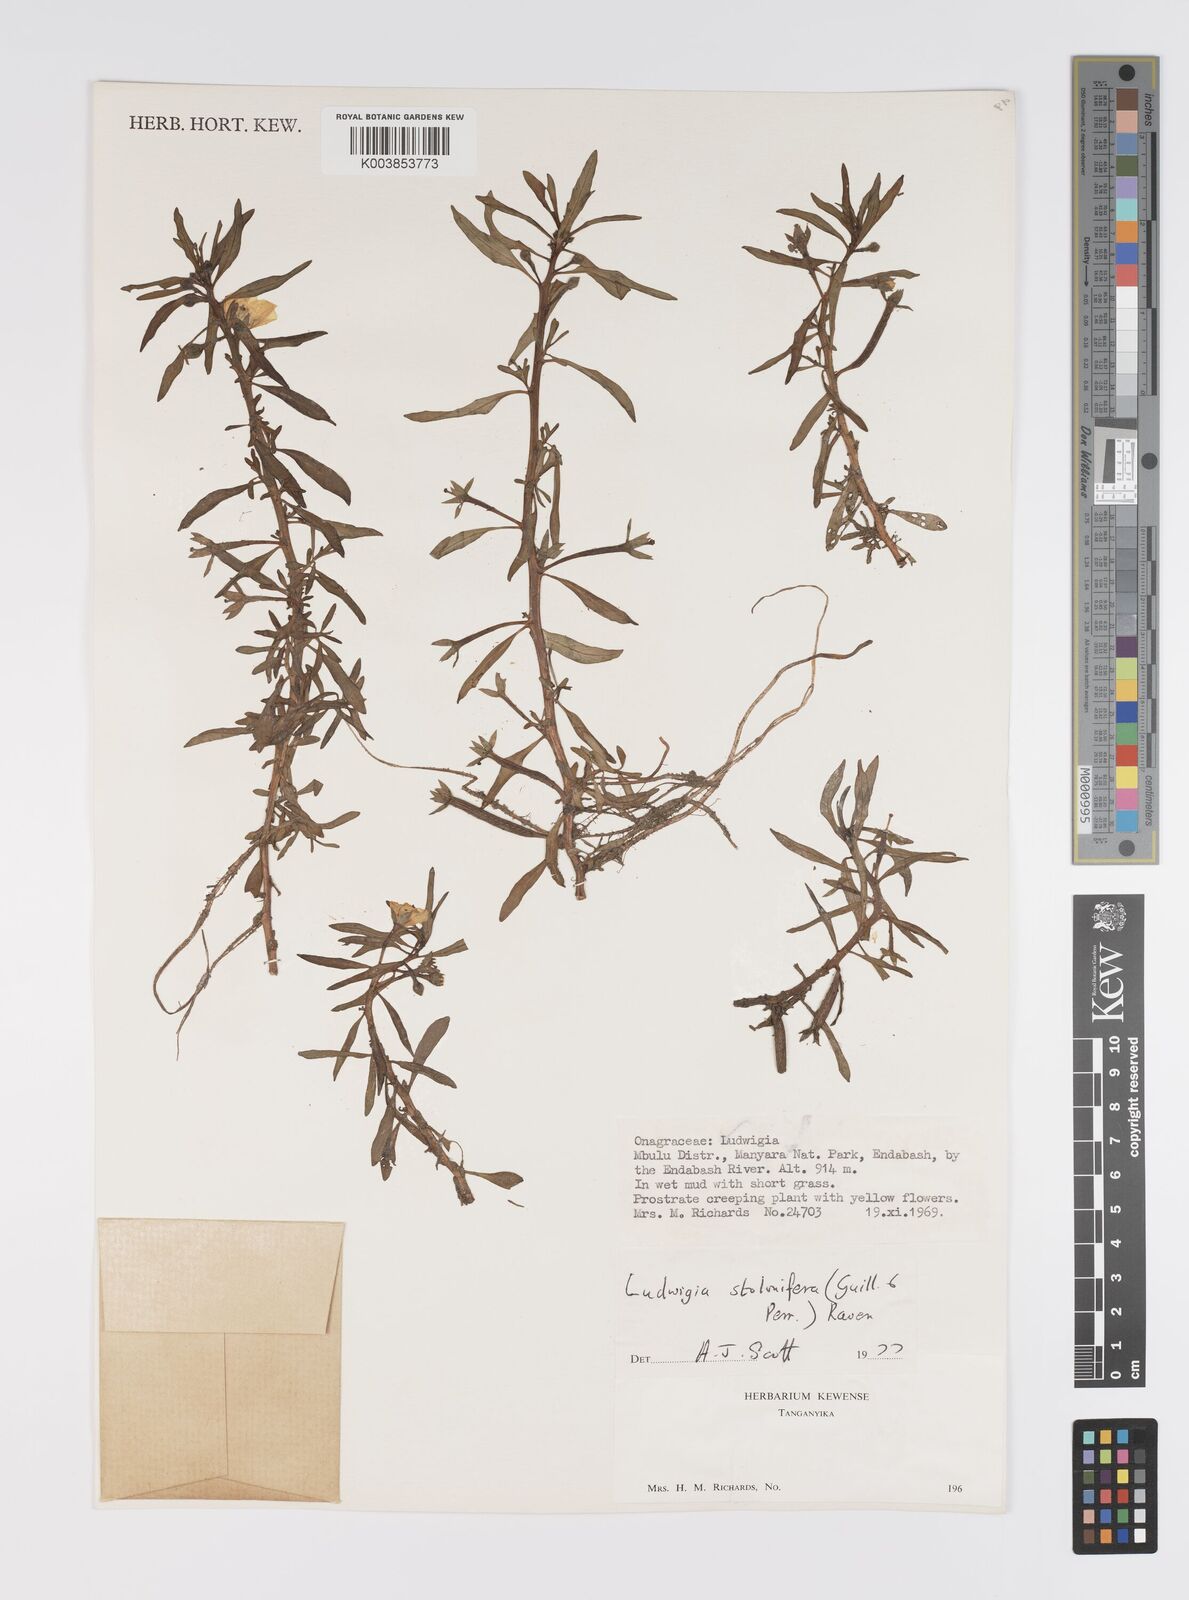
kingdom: Plantae
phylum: Tracheophyta
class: Magnoliopsida
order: Myrtales
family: Onagraceae
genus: Ludwigia
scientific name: Ludwigia repens
